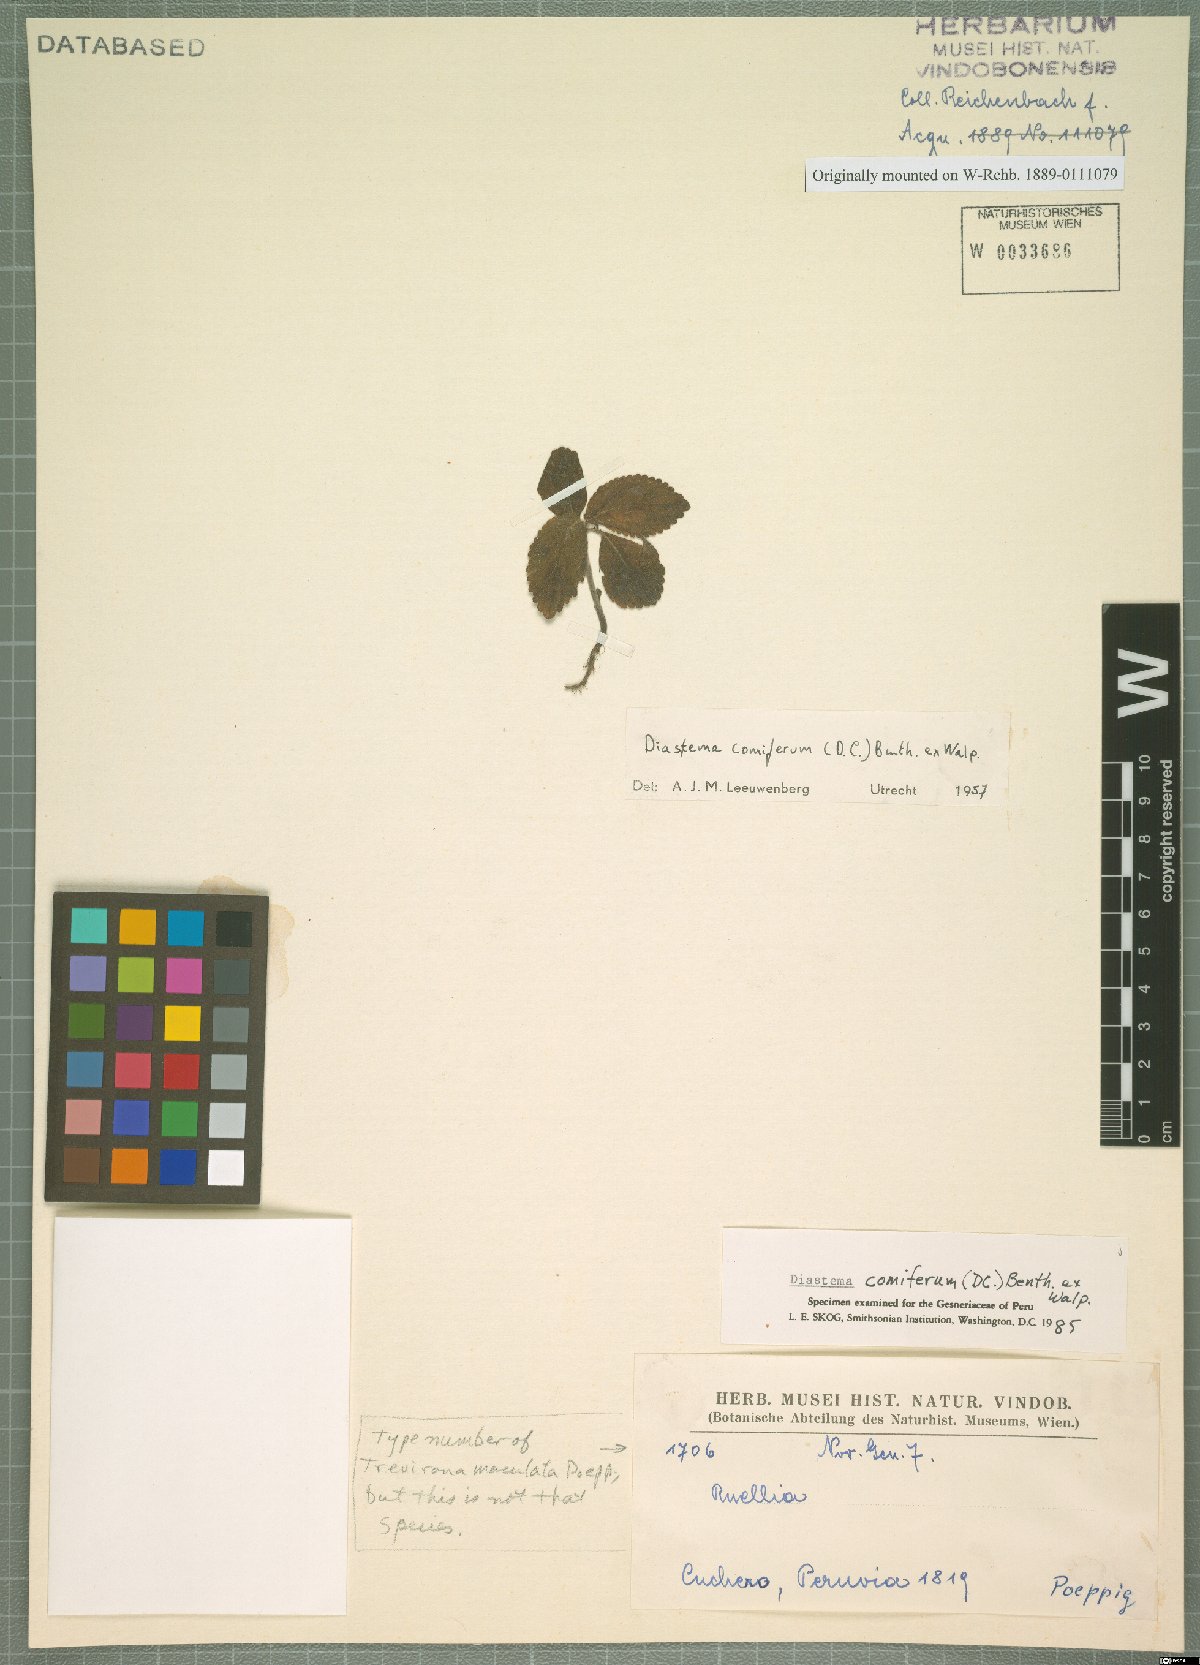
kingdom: Plantae
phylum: Tracheophyta
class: Magnoliopsida
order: Lamiales
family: Gesneriaceae
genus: Diastema
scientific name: Diastema comiferum
